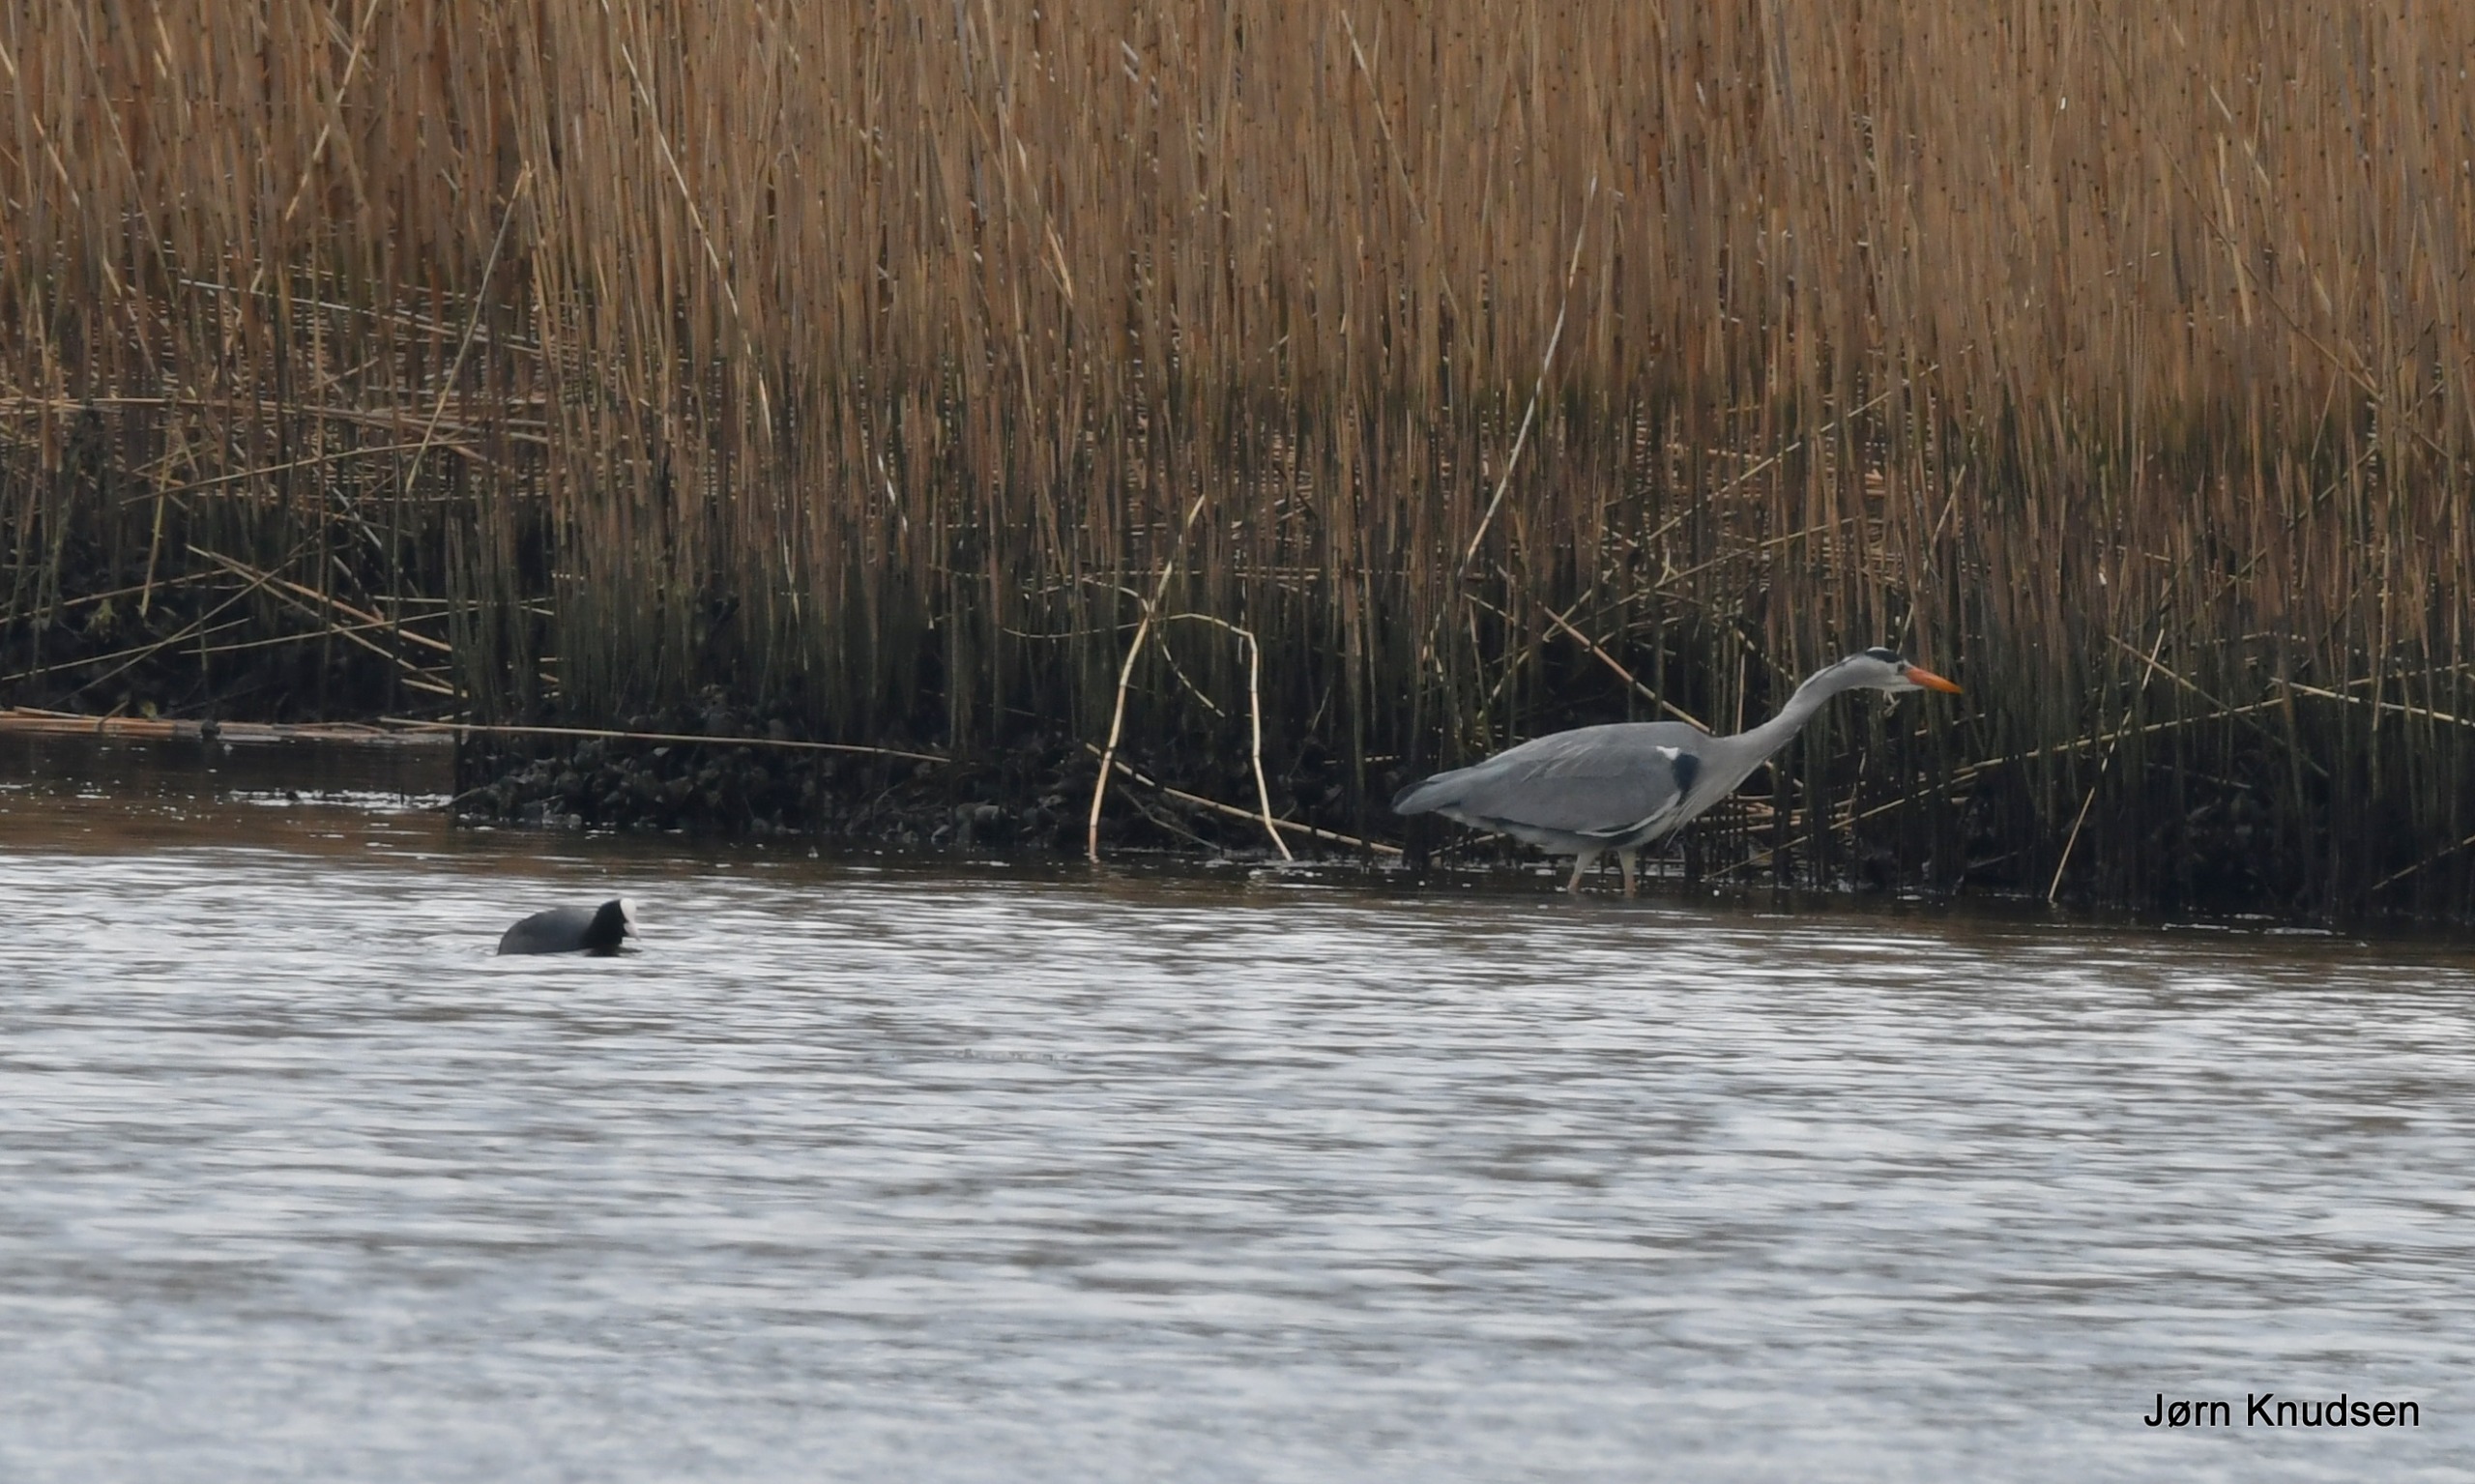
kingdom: Animalia
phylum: Chordata
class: Aves
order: Pelecaniformes
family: Ardeidae
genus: Ardea
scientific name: Ardea cinerea
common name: Fiskehejre
